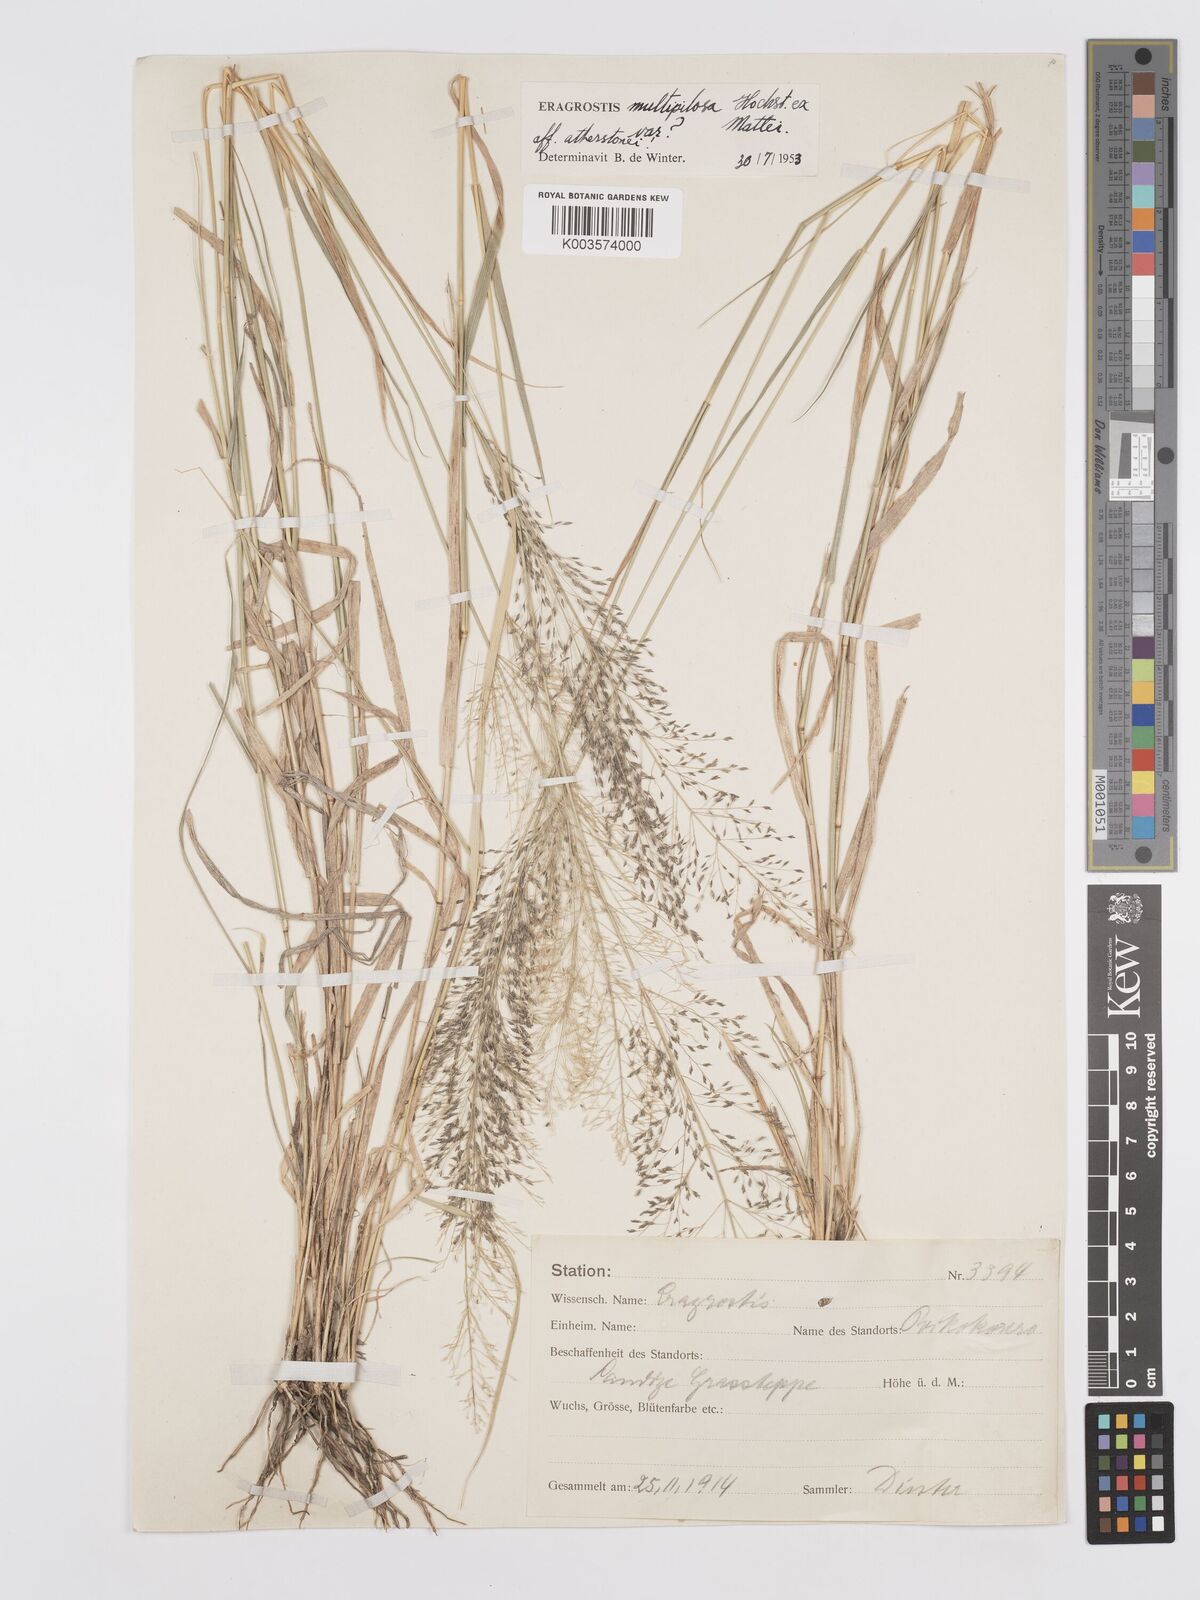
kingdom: Plantae
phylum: Tracheophyta
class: Liliopsida
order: Poales
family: Poaceae
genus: Eragrostis
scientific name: Eragrostis cylindriflora
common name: Cylinderflower lovegrass
